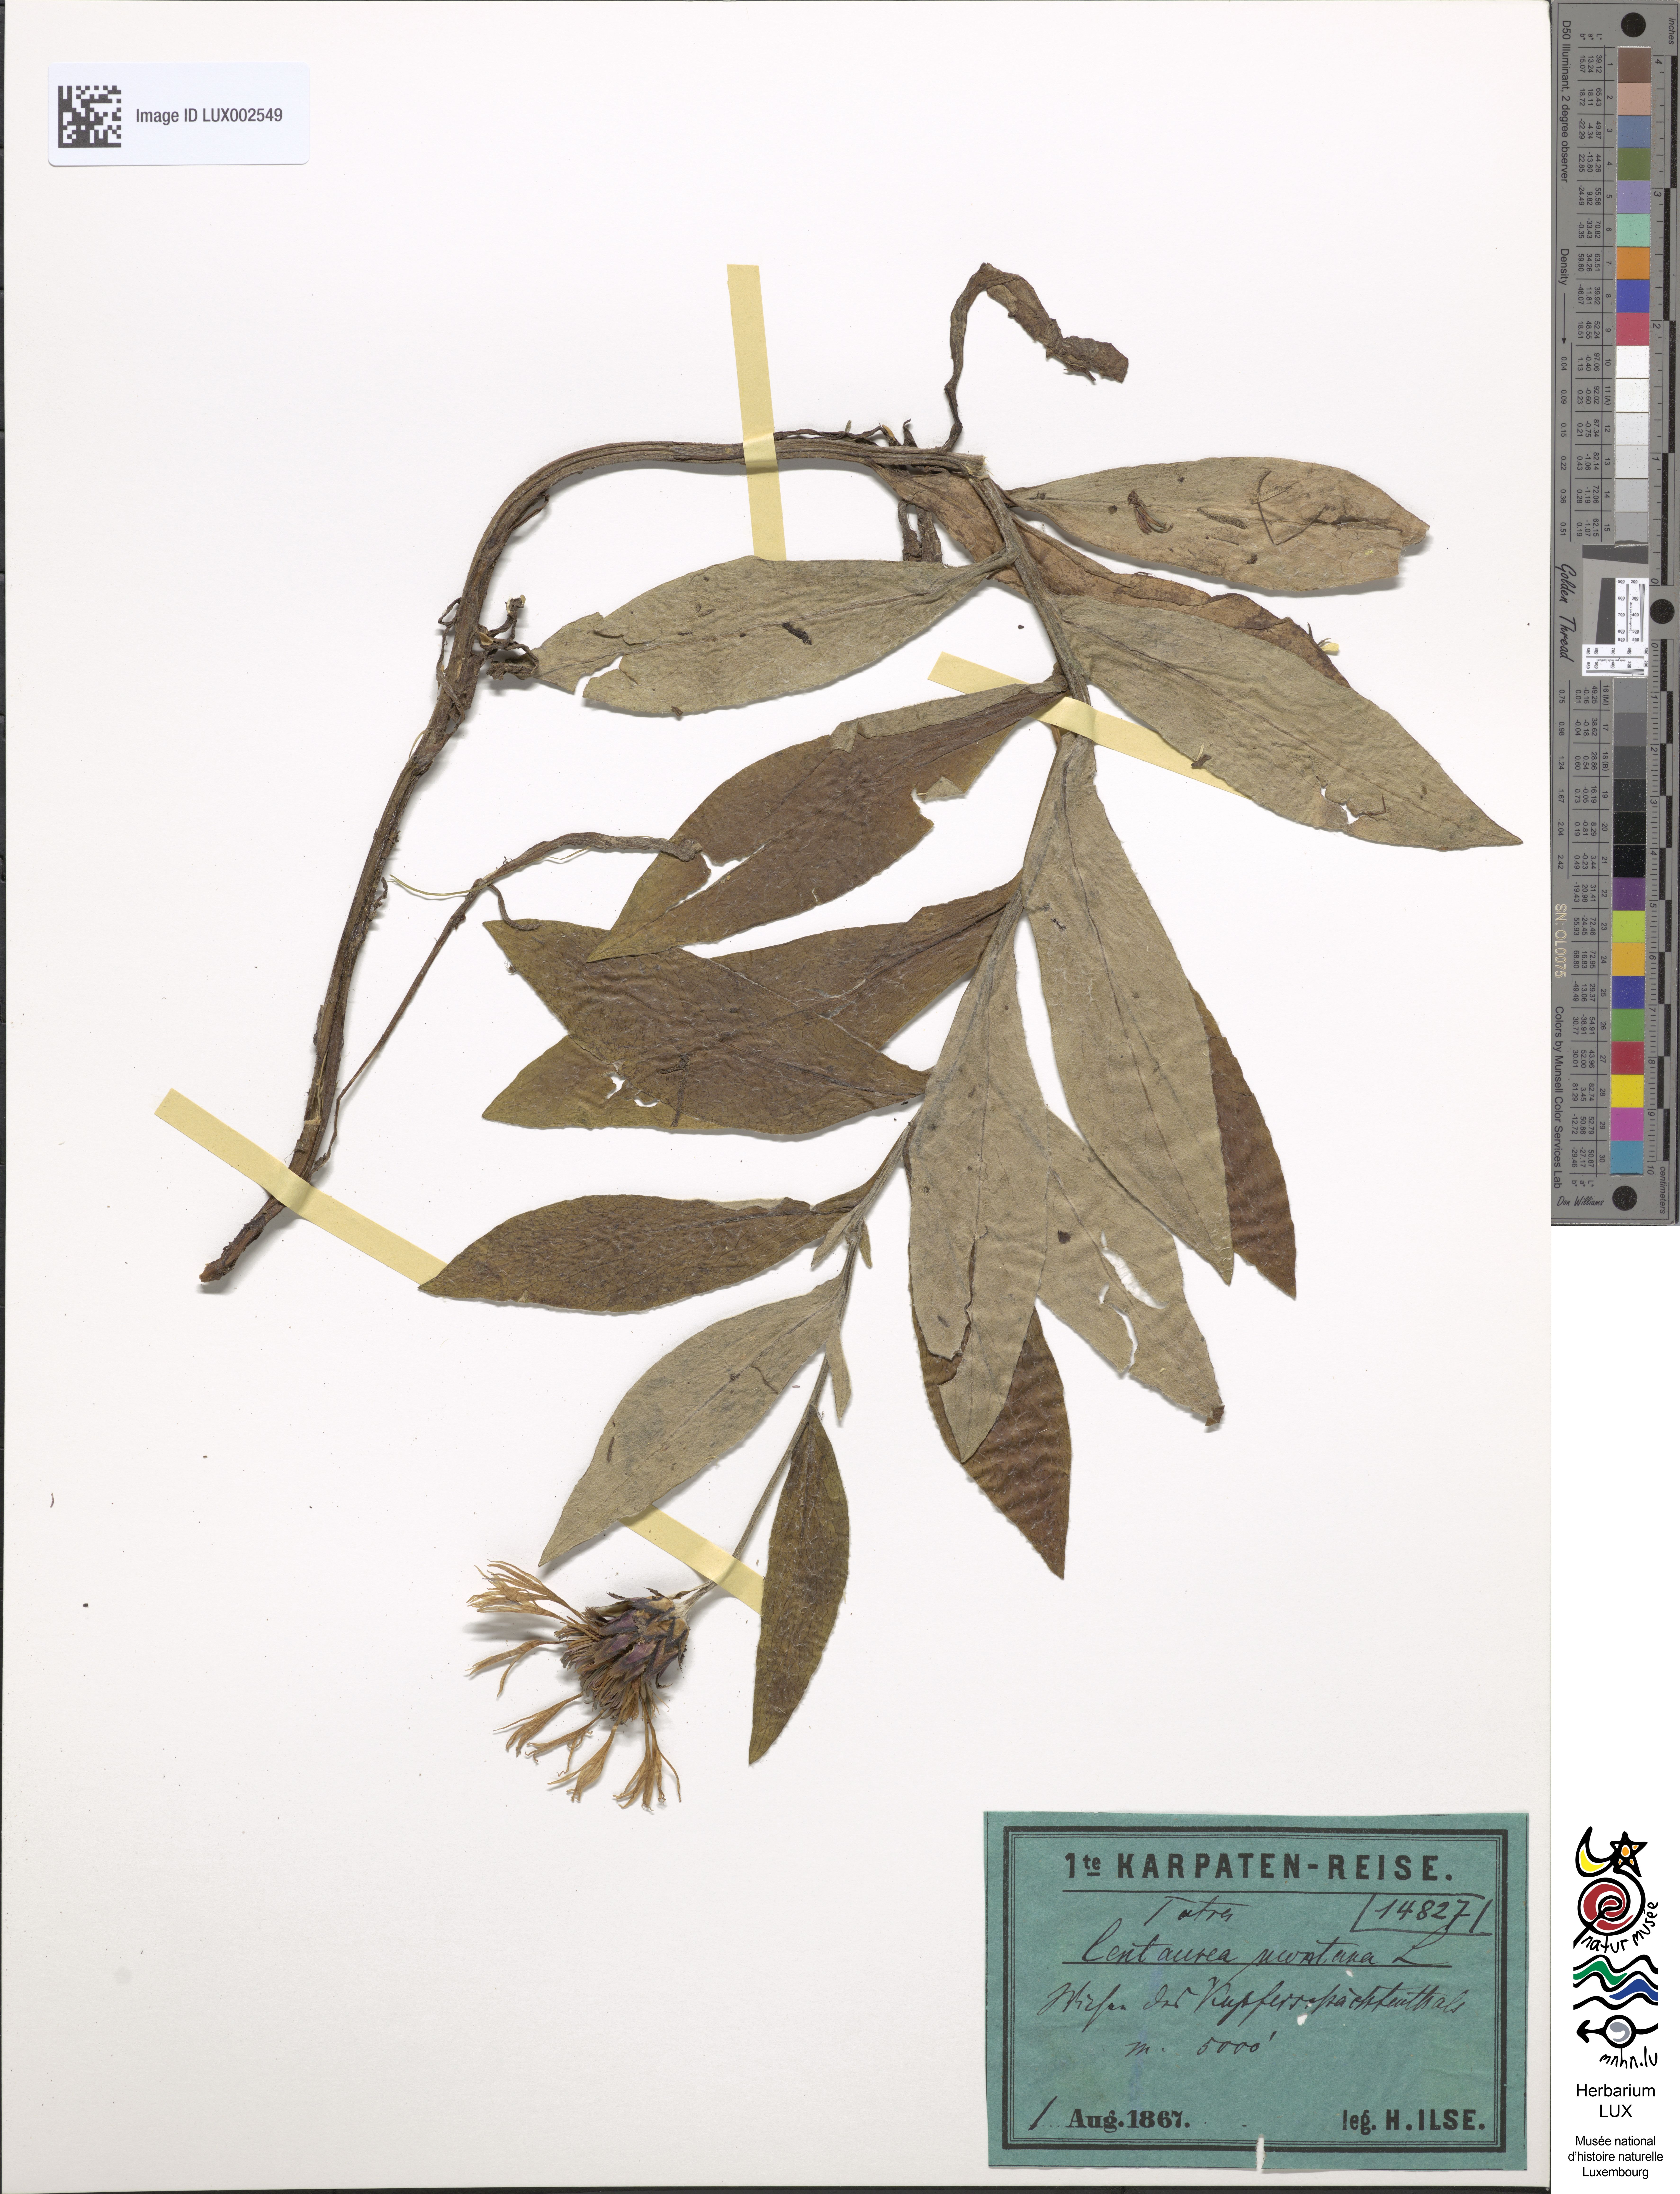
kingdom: Plantae
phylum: Tracheophyta
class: Magnoliopsida
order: Asterales
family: Asteraceae
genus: Centaurea
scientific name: Centaurea montana
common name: Perennial cornflower
